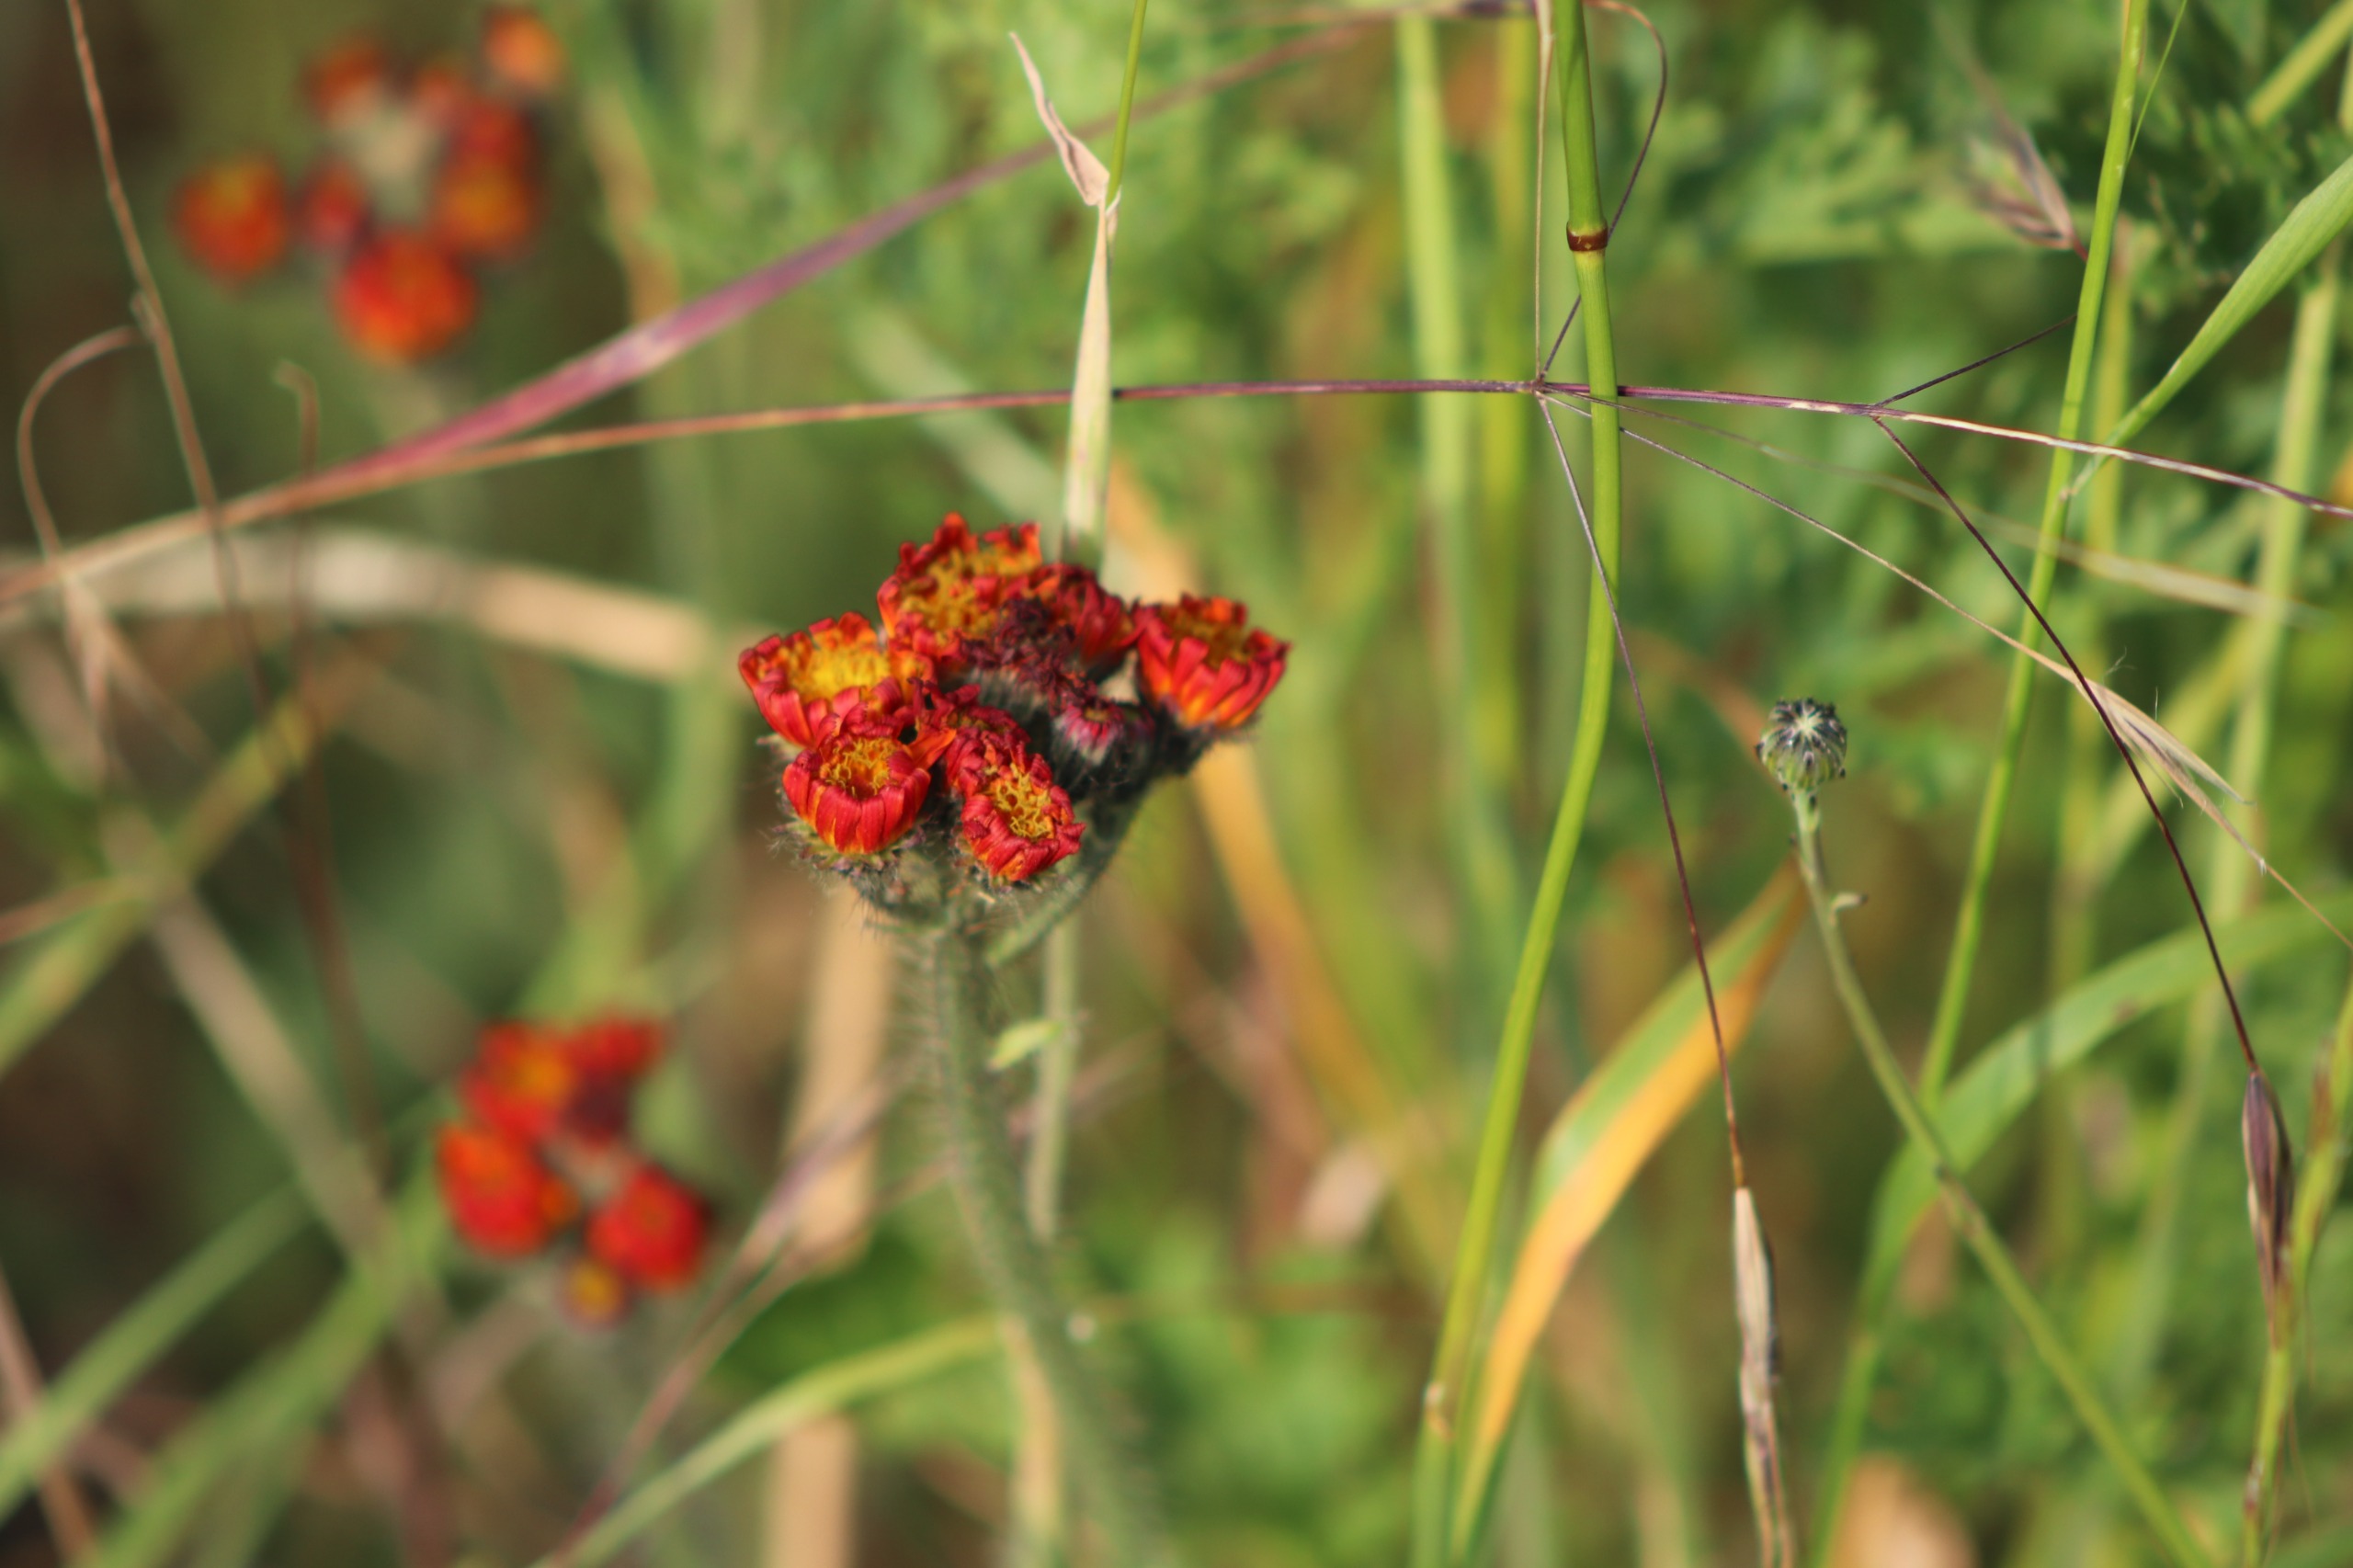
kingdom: Plantae
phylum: Tracheophyta
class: Magnoliopsida
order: Asterales
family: Asteraceae
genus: Pilosella
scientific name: Pilosella aurantiaca
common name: Pomerans-høgeurt
